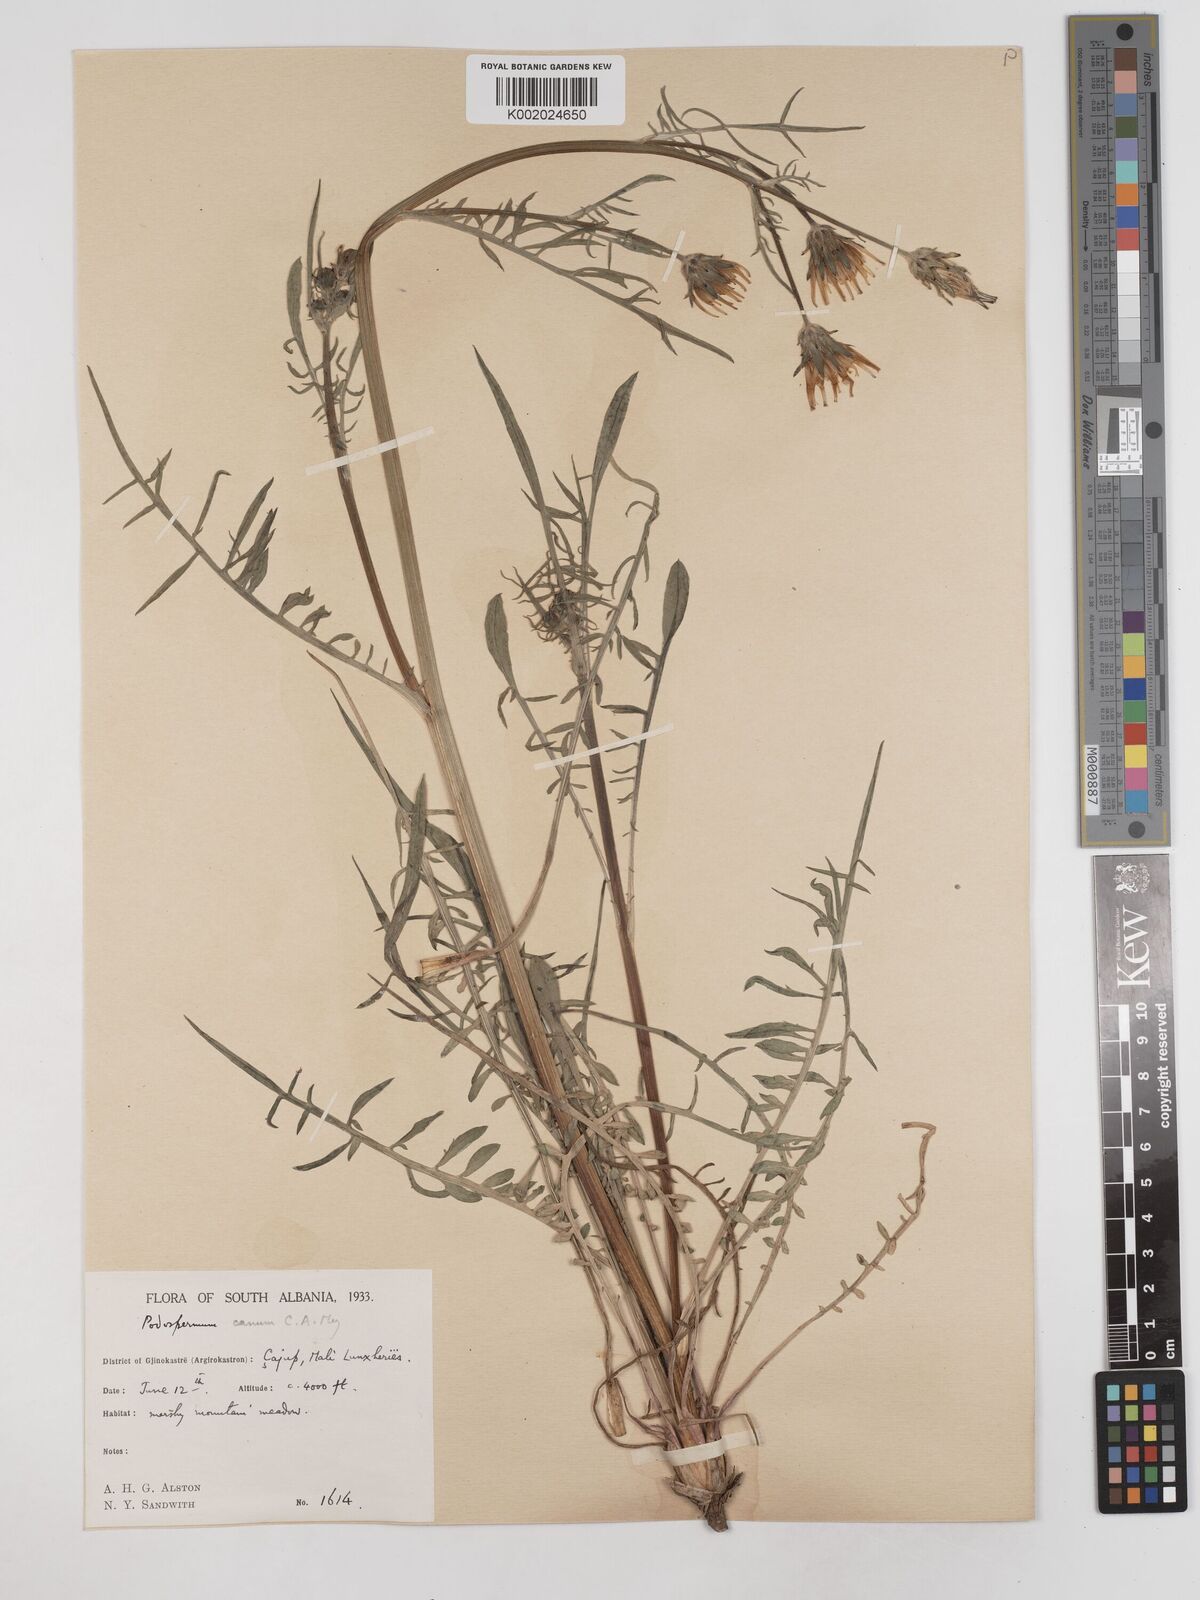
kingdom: Plantae
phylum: Tracheophyta
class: Magnoliopsida
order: Asterales
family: Asteraceae
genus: Scorzonera
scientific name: Scorzonera cana
